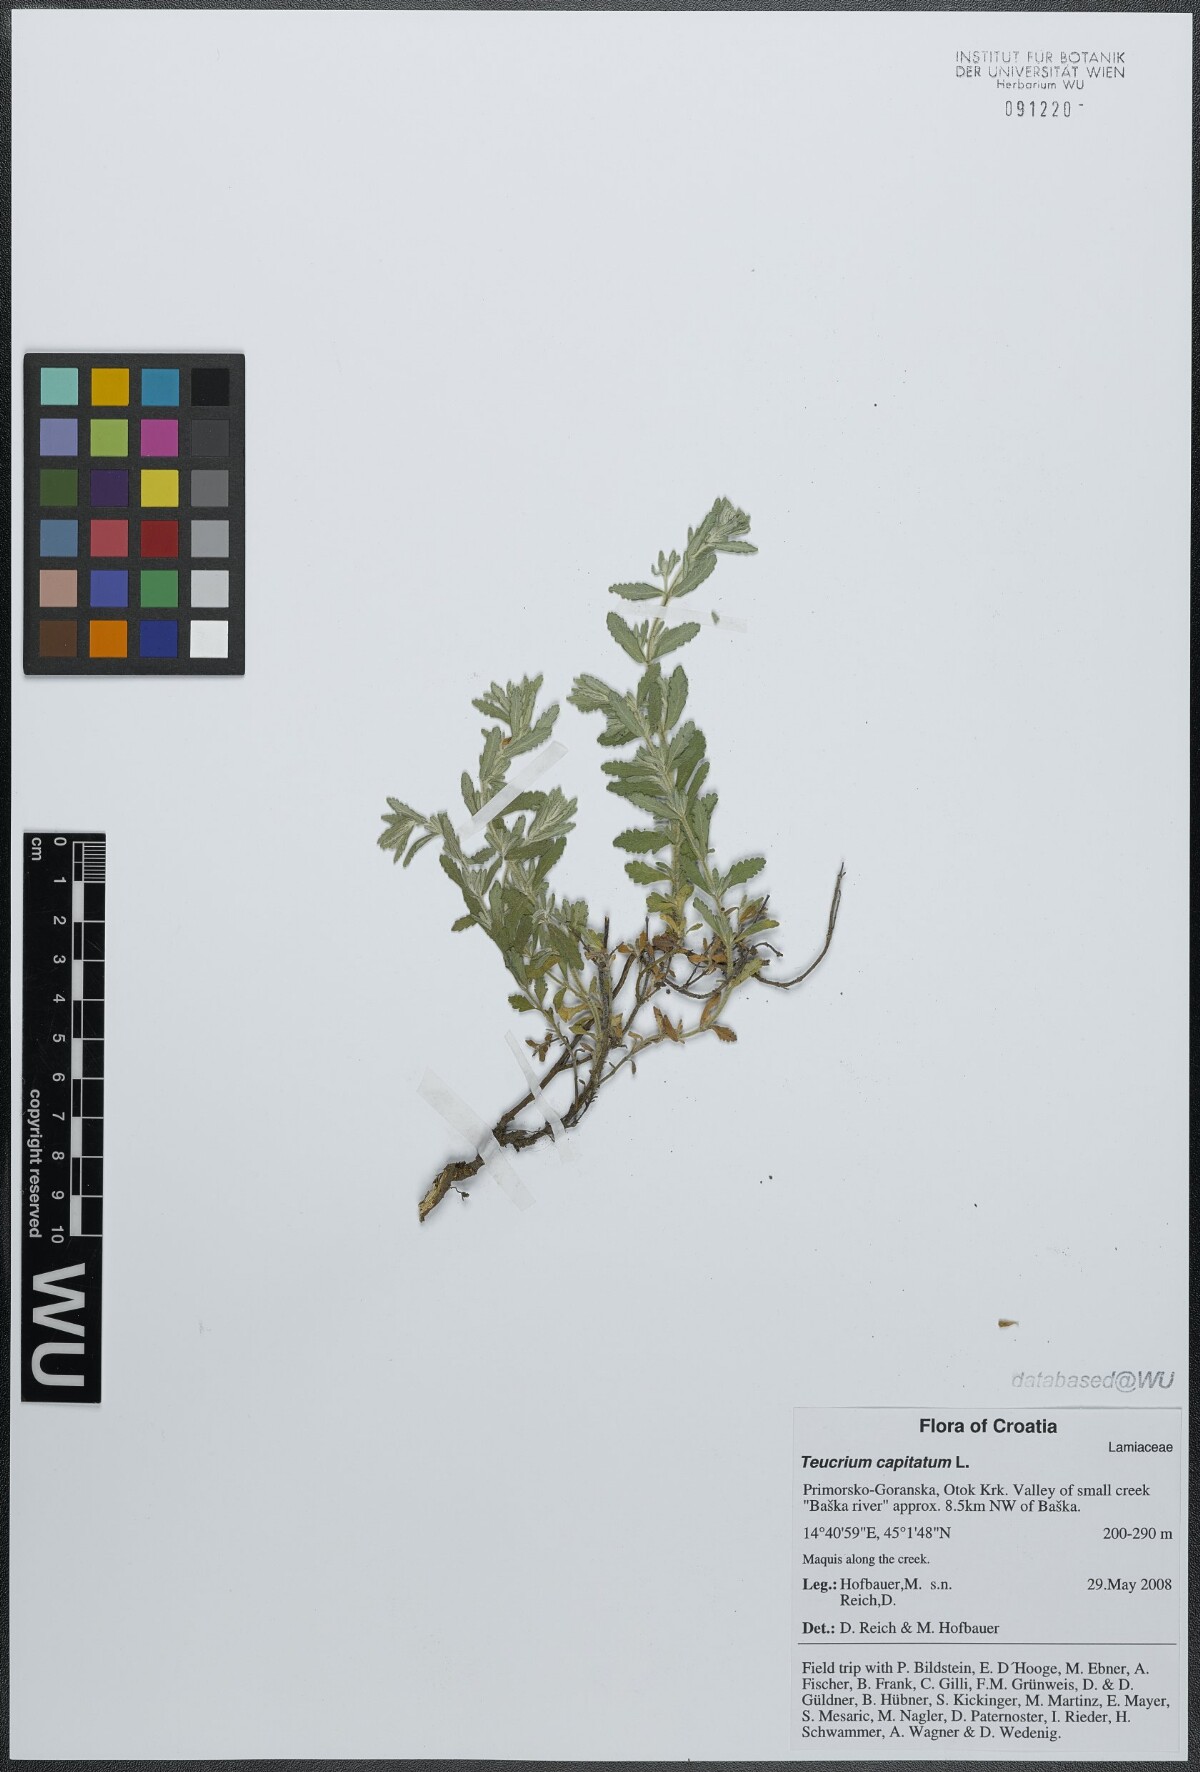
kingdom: Plantae
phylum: Tracheophyta
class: Magnoliopsida
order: Lamiales
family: Lamiaceae
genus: Teucrium
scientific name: Teucrium capitatum
